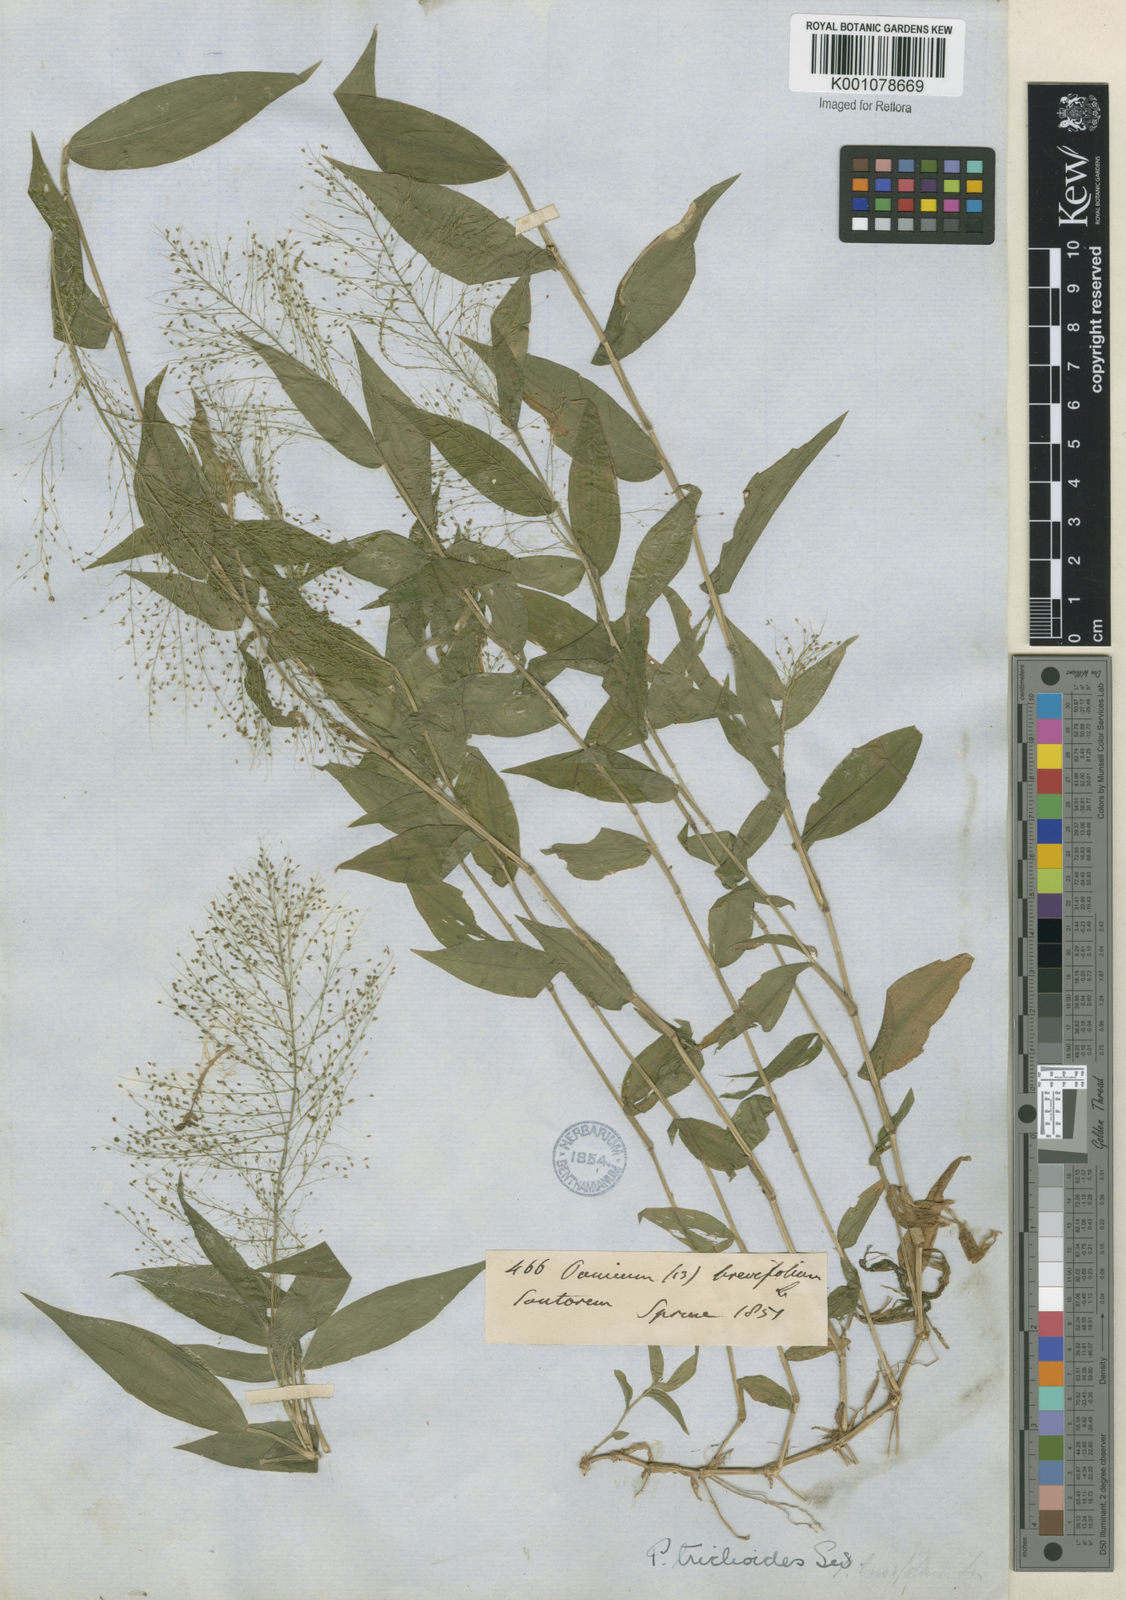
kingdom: Plantae
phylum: Tracheophyta
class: Liliopsida
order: Poales
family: Poaceae
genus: Panicum
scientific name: Panicum trichoides
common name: Tickle grass
